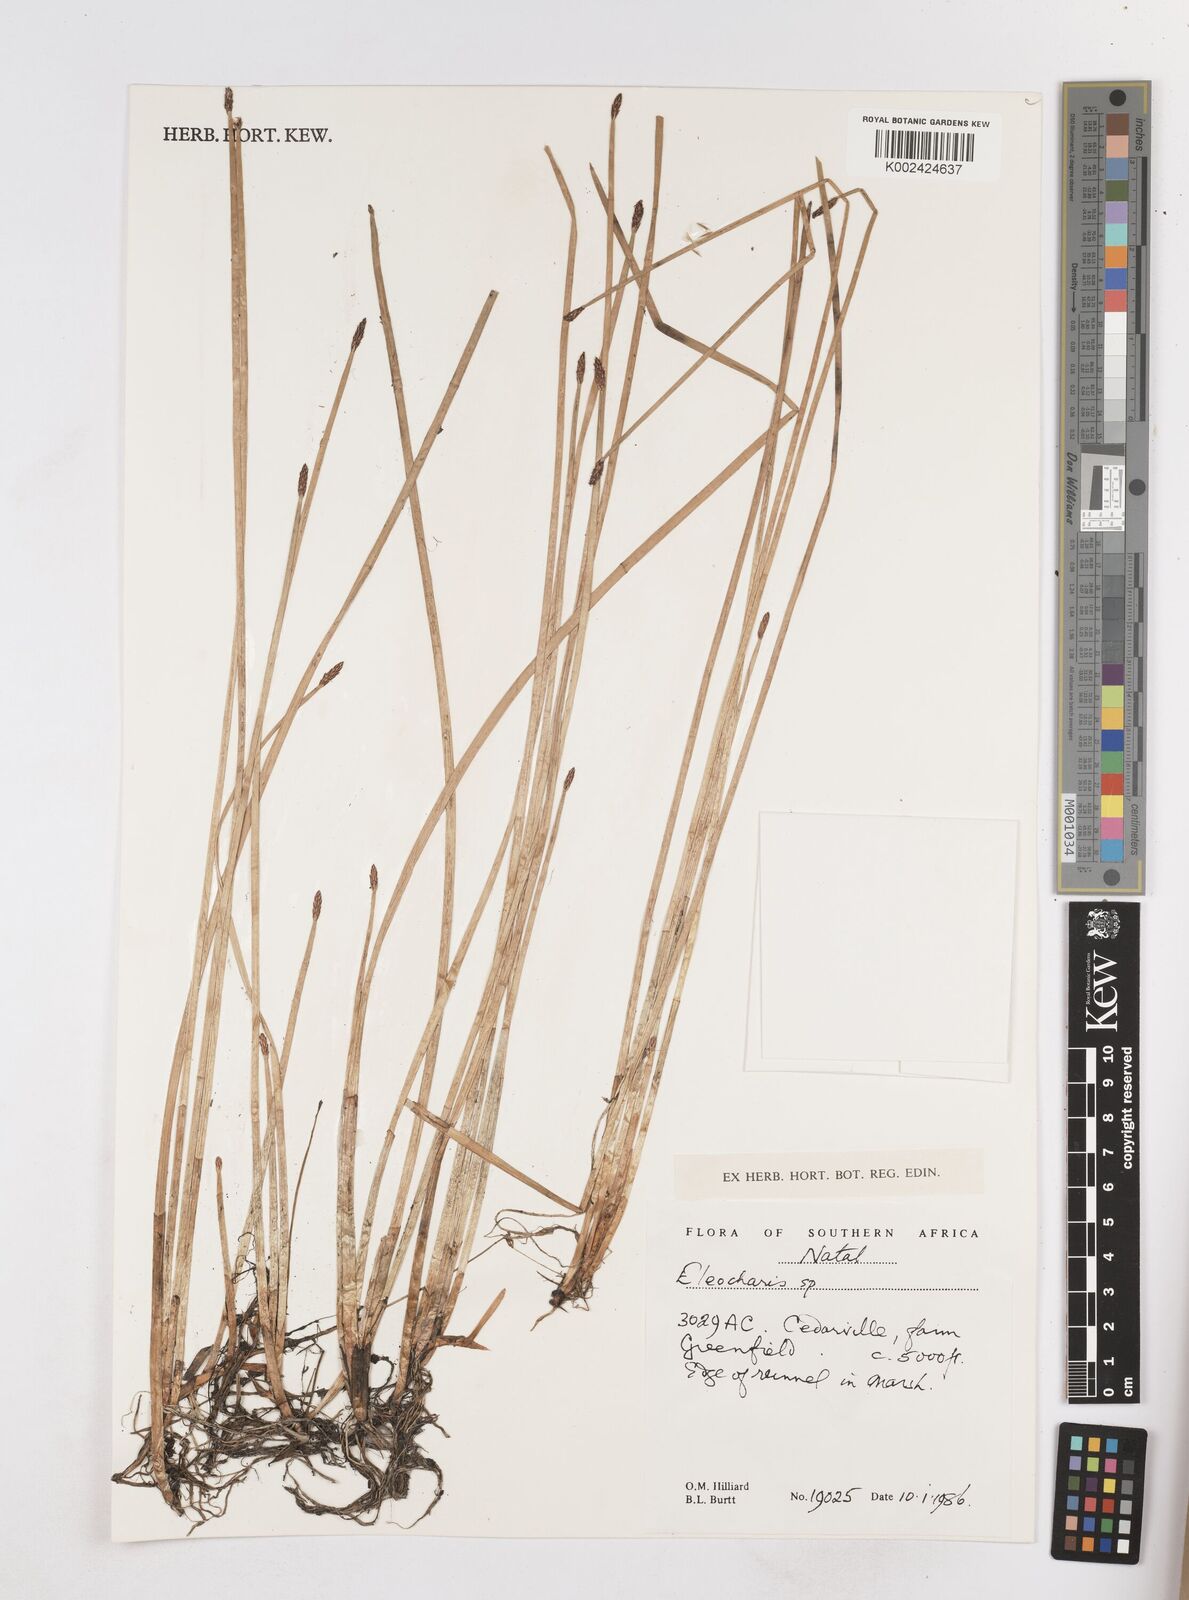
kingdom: Plantae
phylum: Tracheophyta
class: Liliopsida
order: Poales
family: Cyperaceae
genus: Eleocharis
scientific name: Eleocharis
